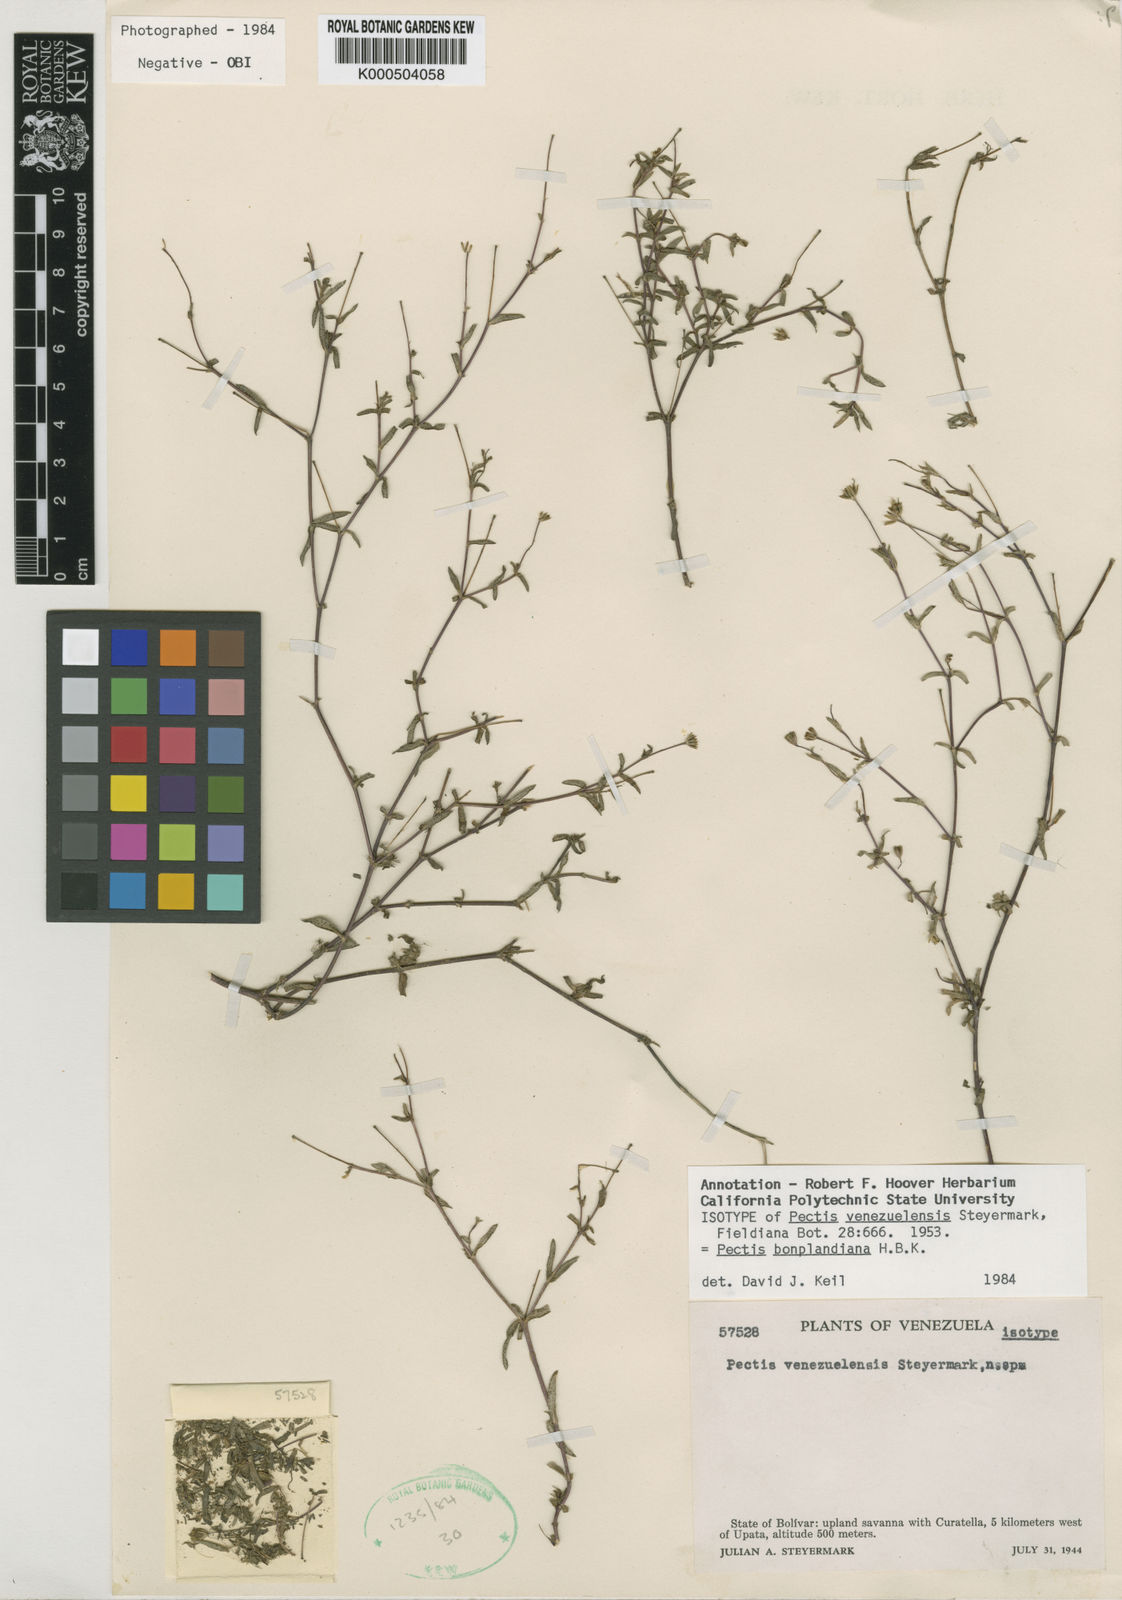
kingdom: Plantae
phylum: Tracheophyta
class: Magnoliopsida
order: Asterales
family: Asteraceae
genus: Pectis
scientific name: Pectis bonplandiana
